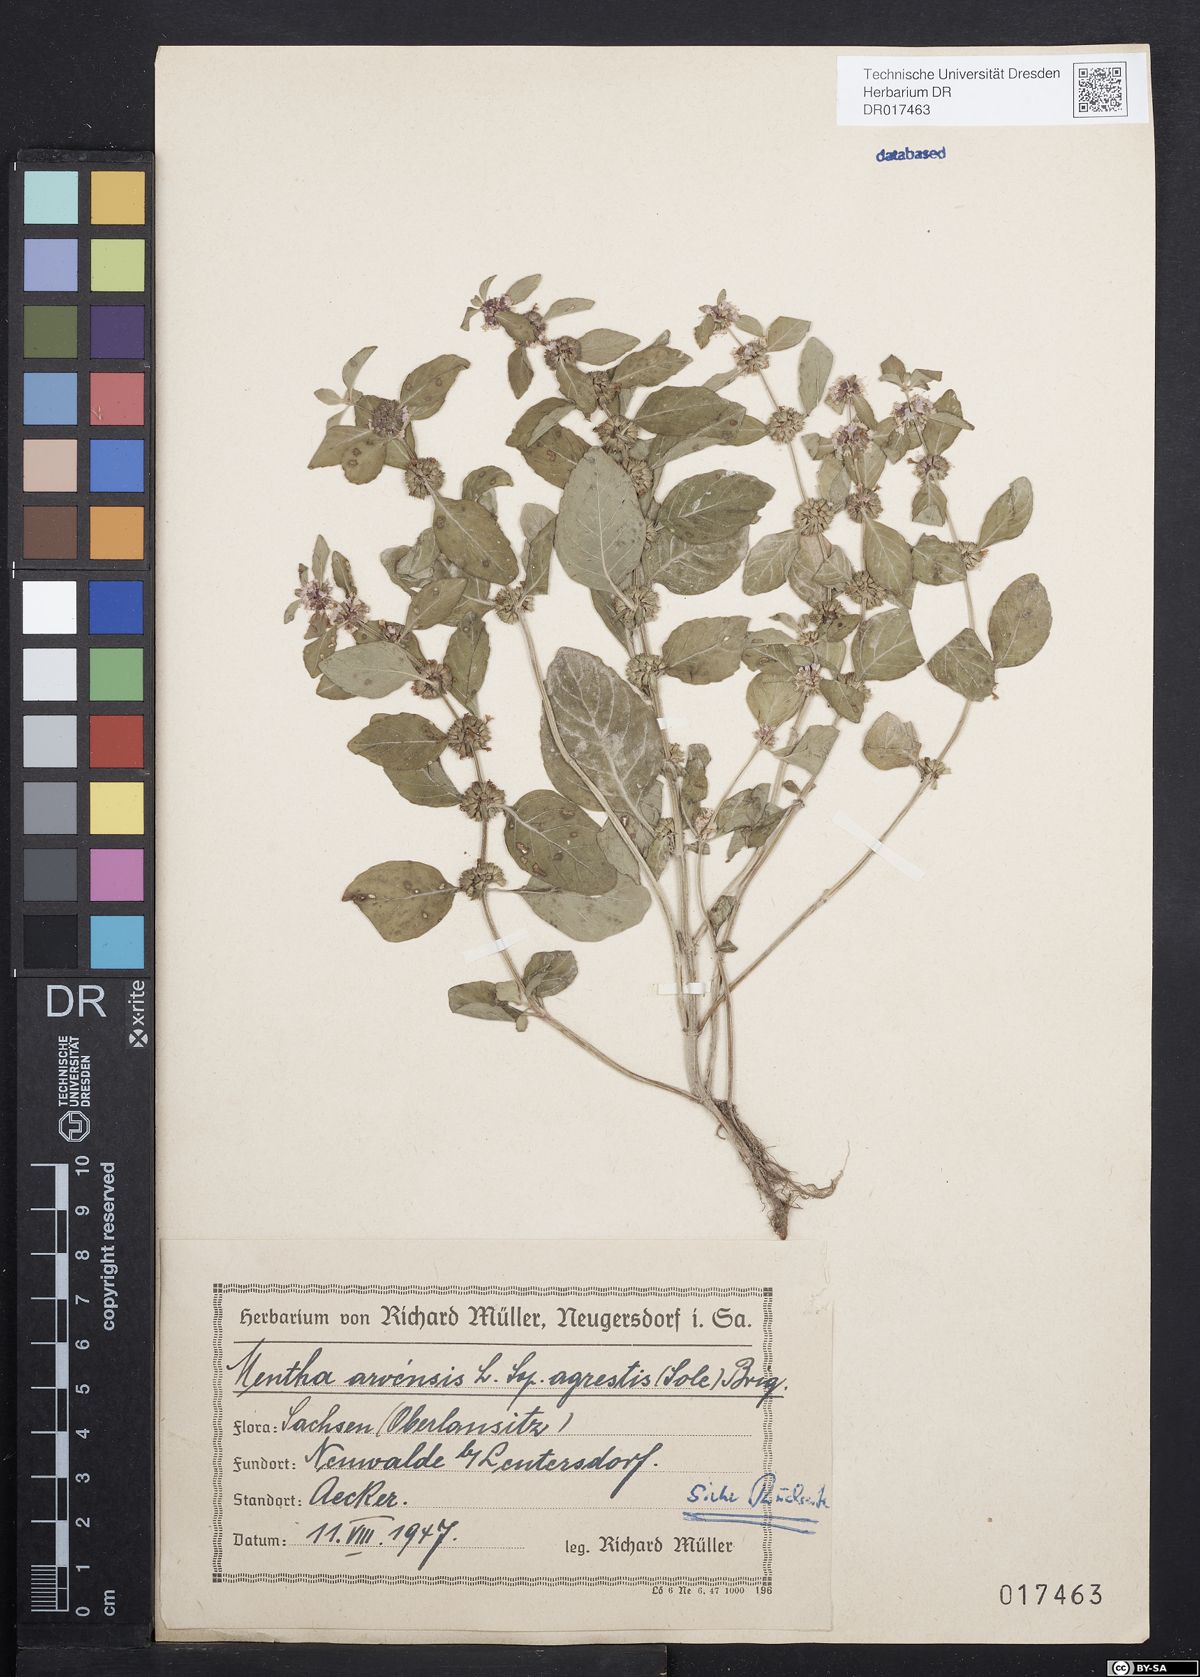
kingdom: Plantae
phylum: Tracheophyta
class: Magnoliopsida
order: Lamiales
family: Lamiaceae
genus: Mentha
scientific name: Mentha arvensis
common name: Corn mint
